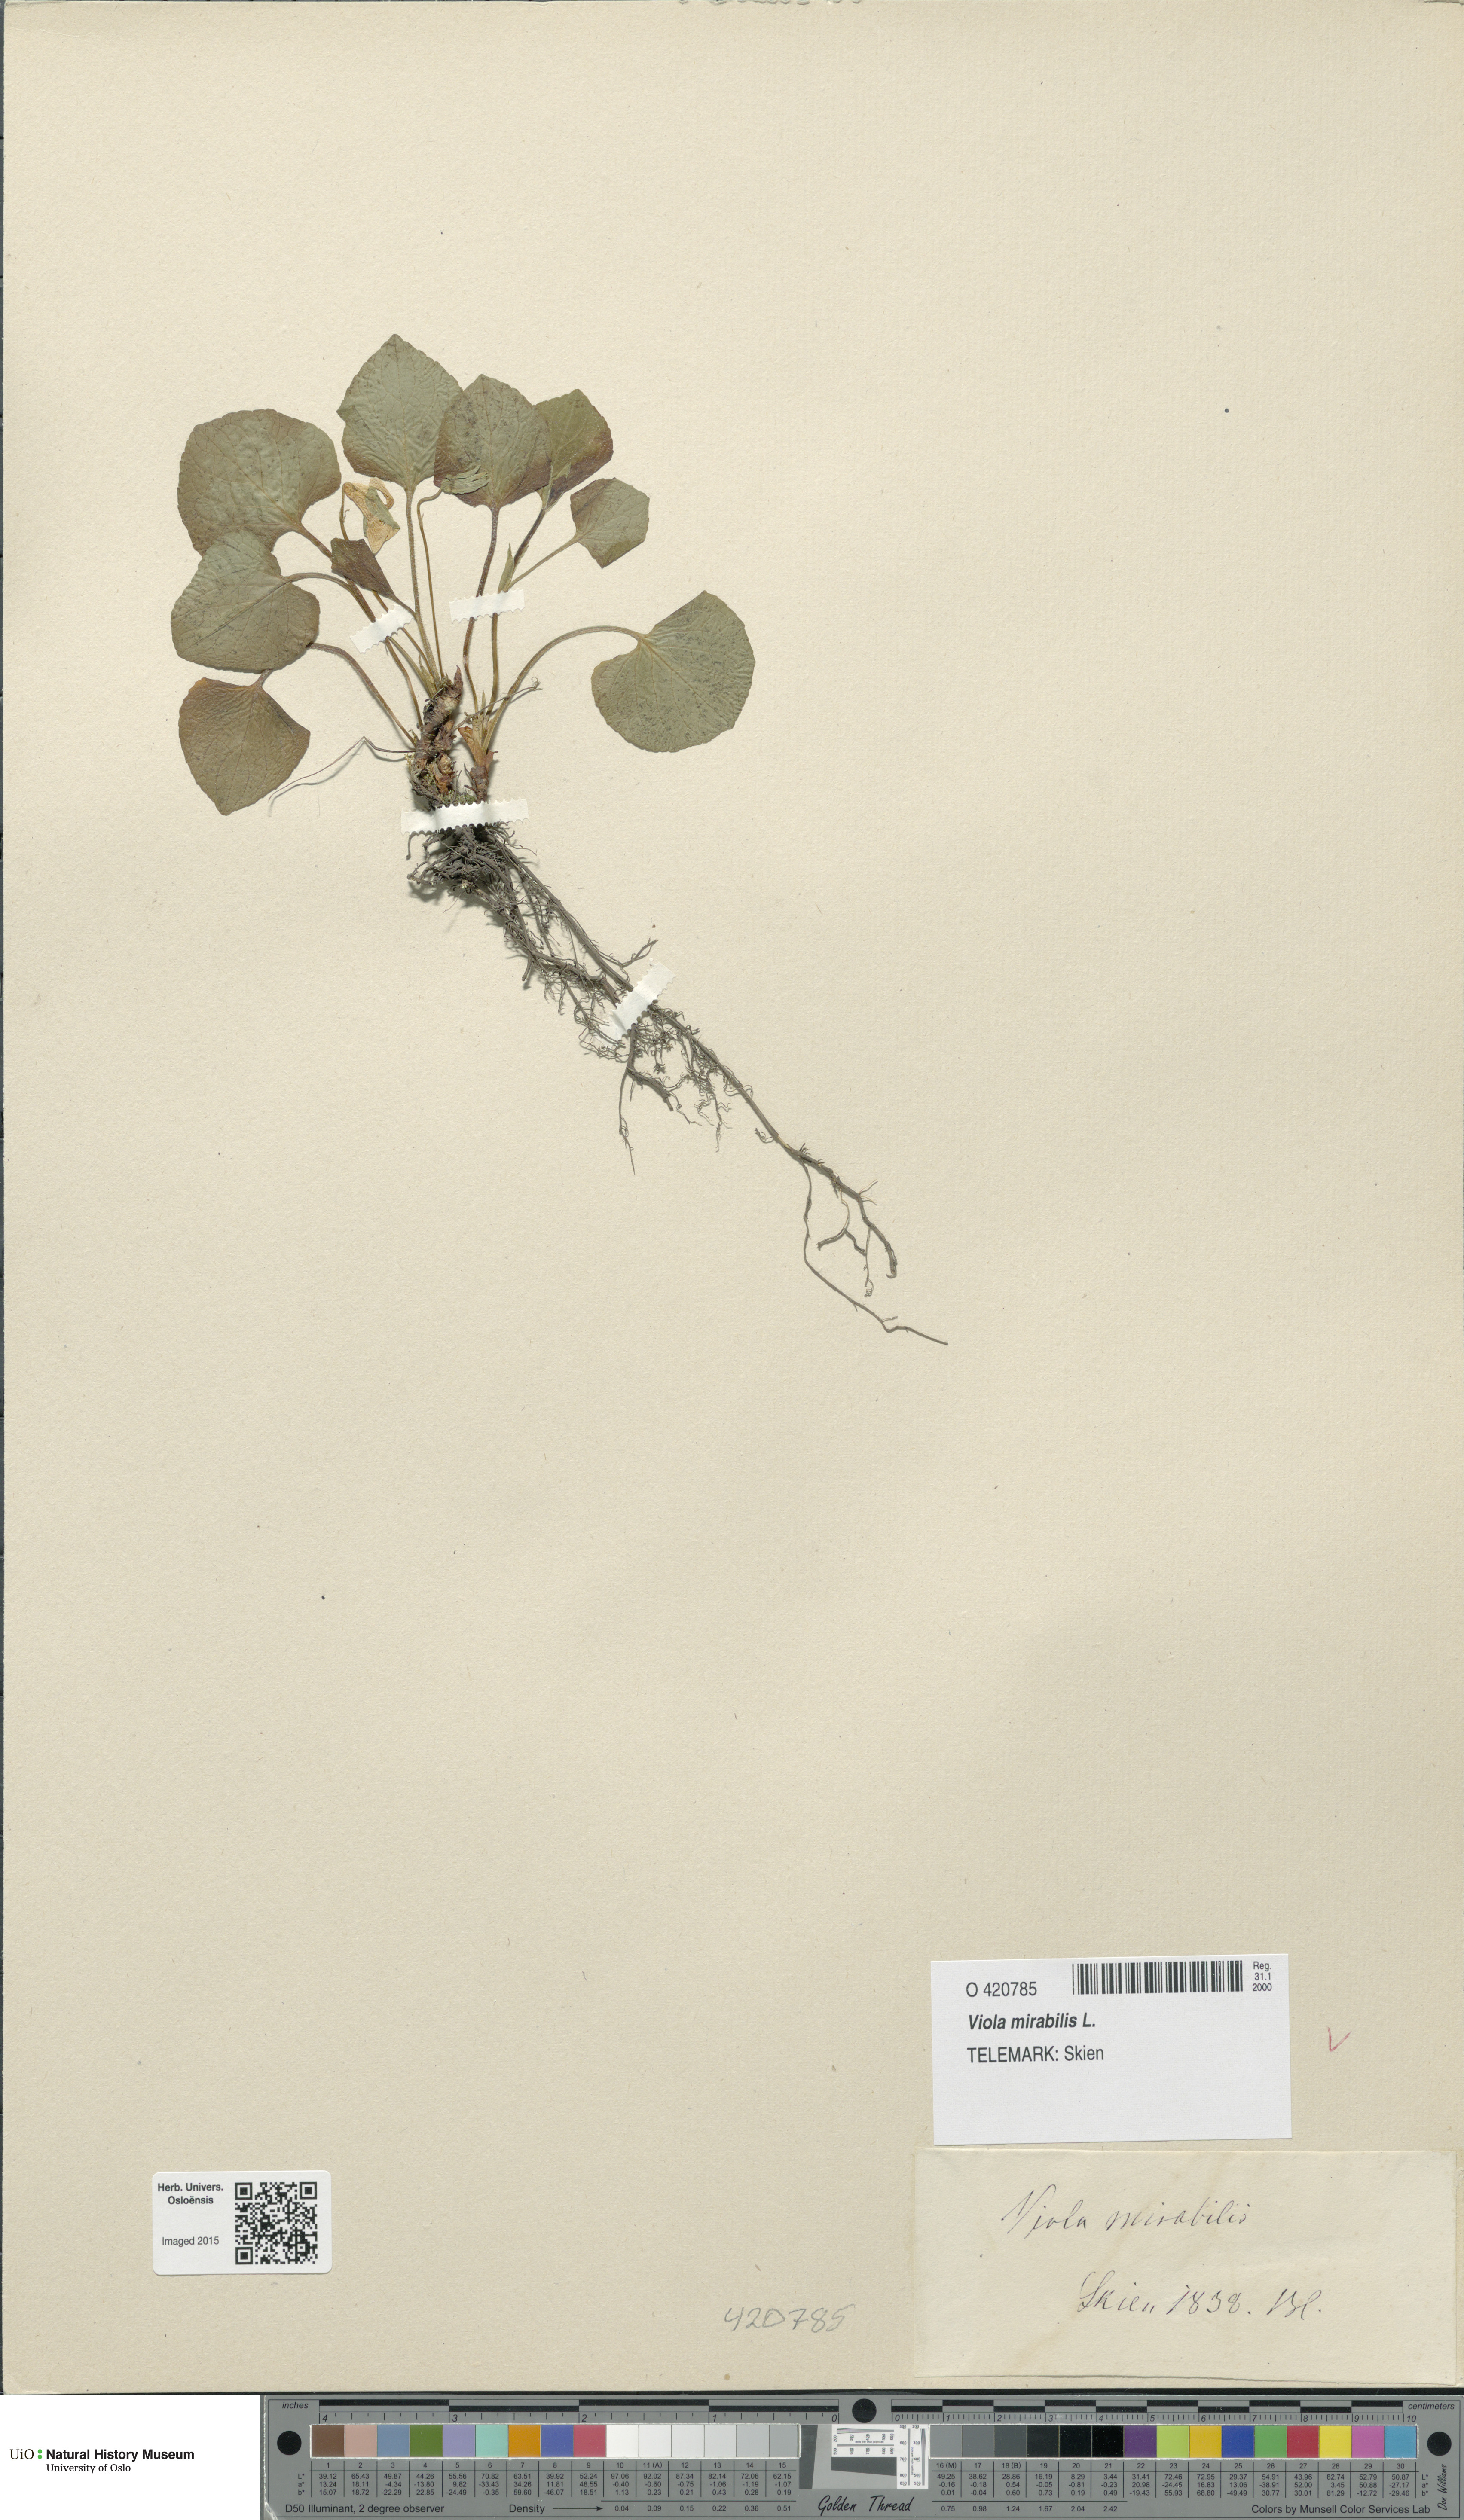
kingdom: Plantae
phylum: Tracheophyta
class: Magnoliopsida
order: Malpighiales
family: Violaceae
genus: Viola
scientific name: Viola mirabilis
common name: Wonder violet
